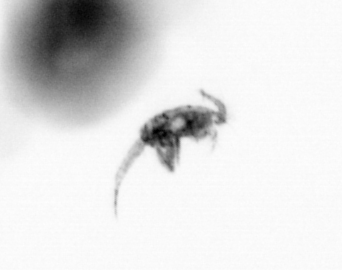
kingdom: Animalia
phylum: Arthropoda
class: Copepoda
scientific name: Copepoda
